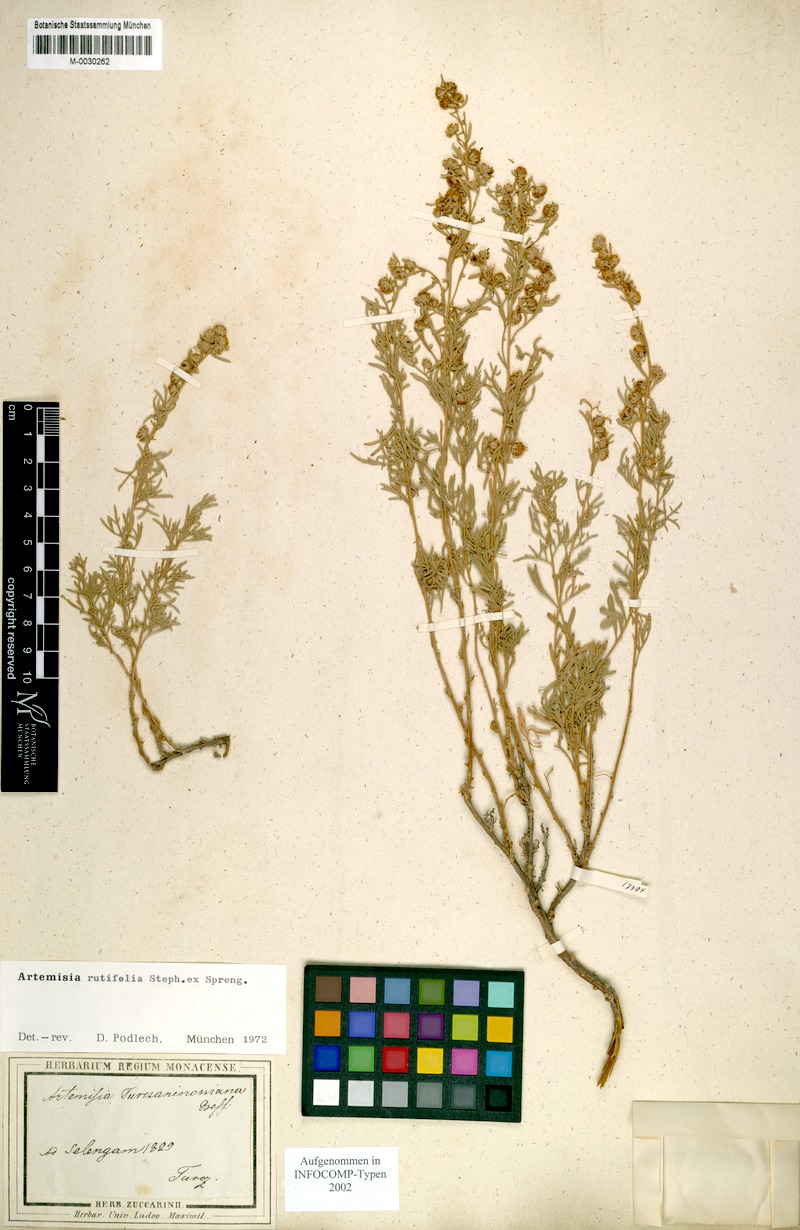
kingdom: Plantae
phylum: Tracheophyta
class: Magnoliopsida
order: Asterales
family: Asteraceae
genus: Artemisia
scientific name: Artemisia rutifolia
